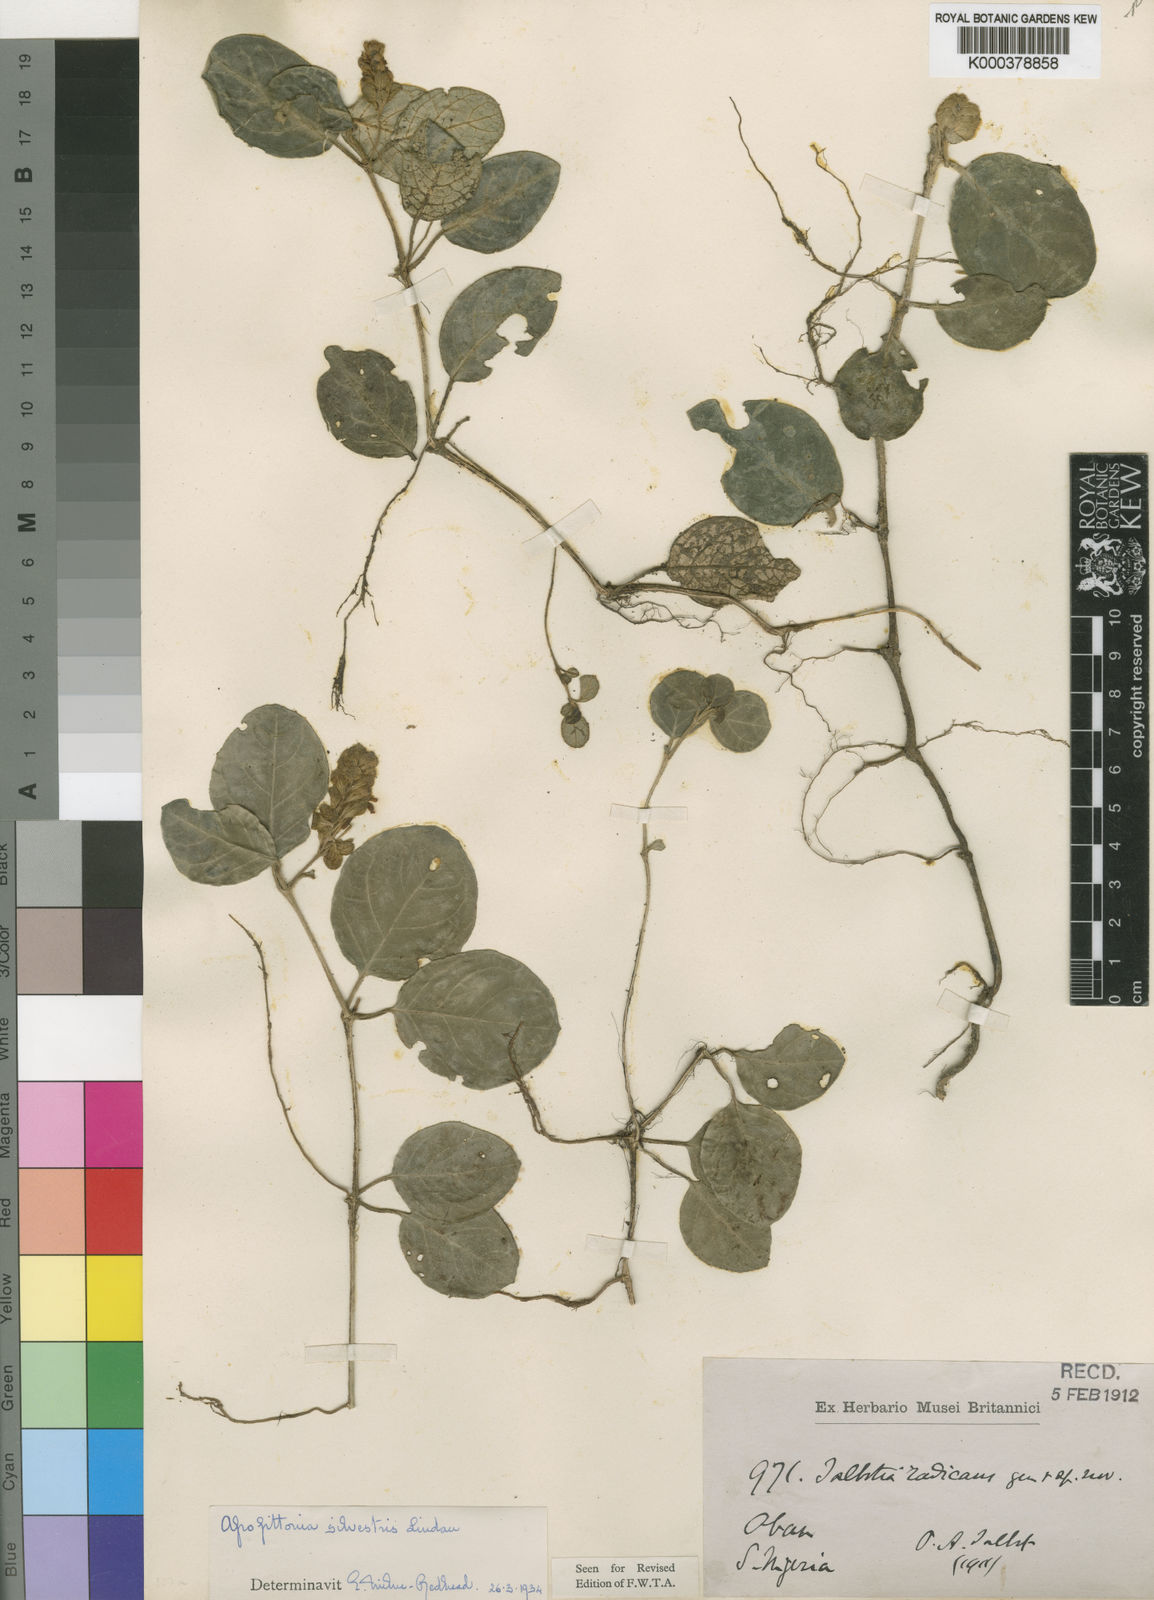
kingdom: Plantae
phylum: Tracheophyta
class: Magnoliopsida
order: Lamiales
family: Acanthaceae
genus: Afrofittonia
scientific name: Afrofittonia silvestris
